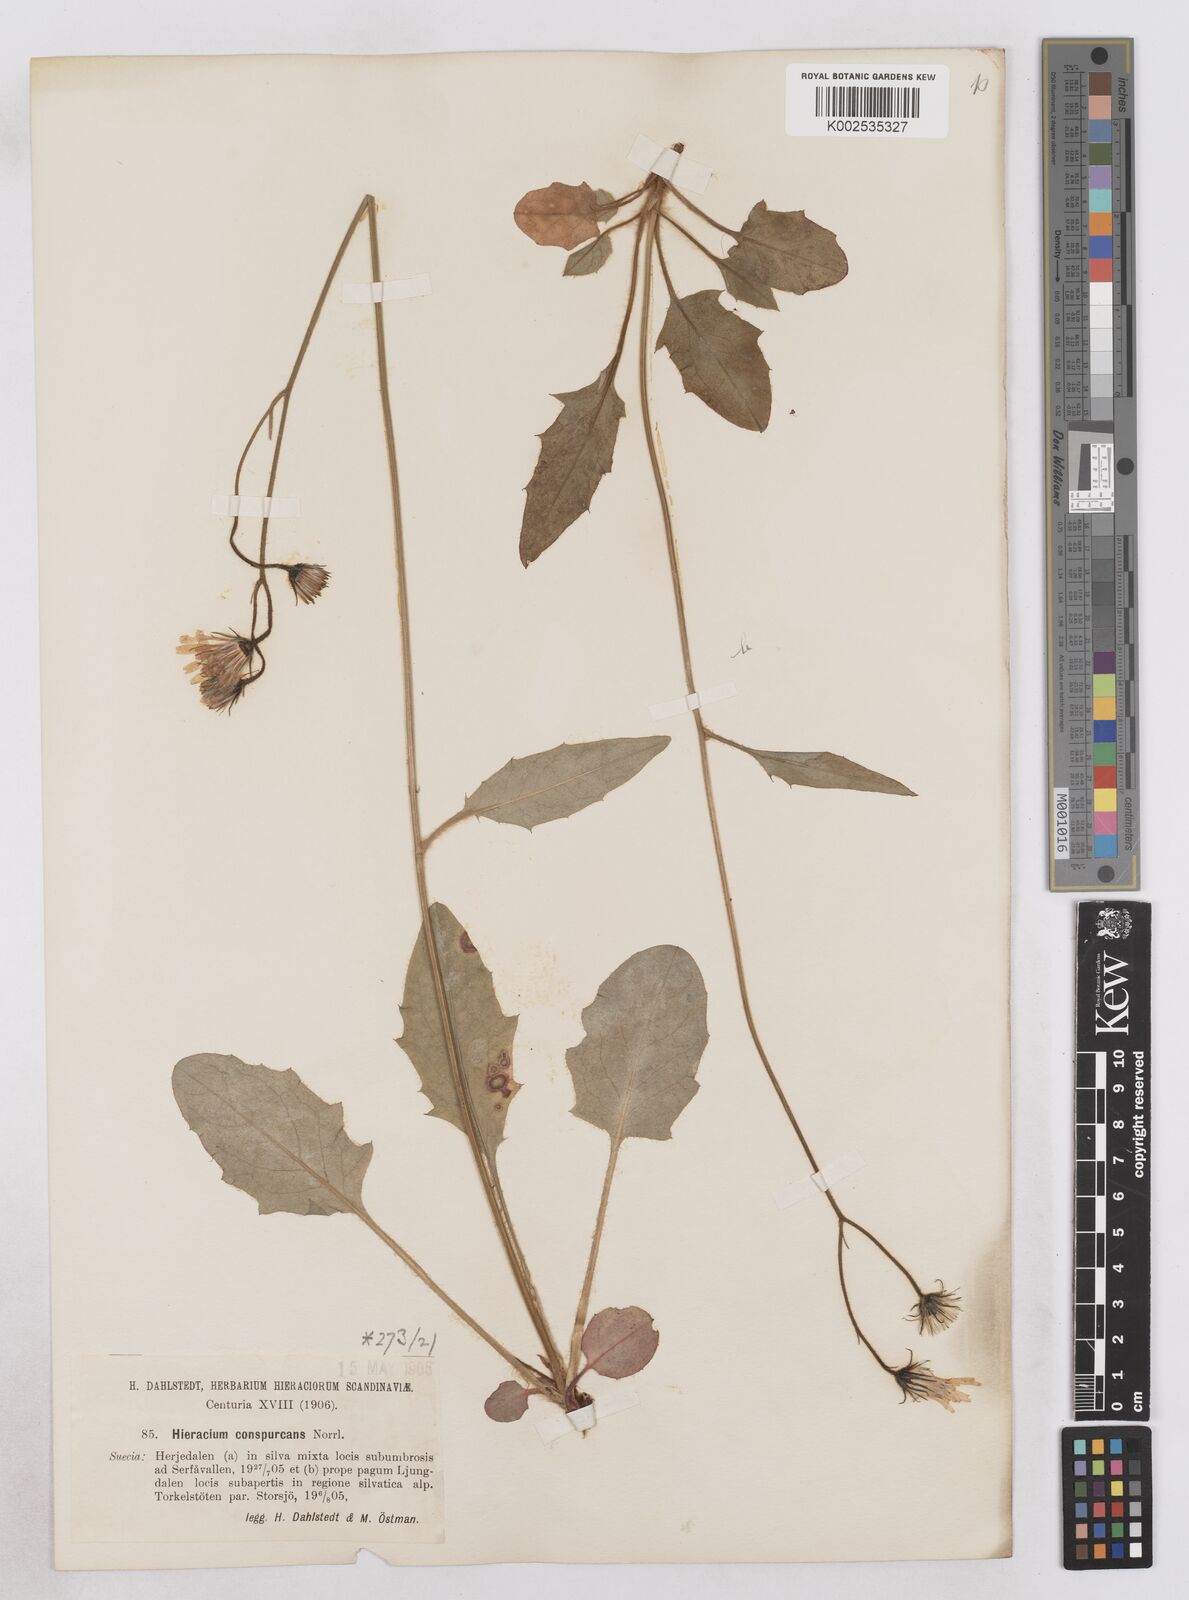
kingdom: Plantae
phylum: Tracheophyta
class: Magnoliopsida
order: Asterales
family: Asteraceae
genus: Hieracium
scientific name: Hieracium conspurcans
